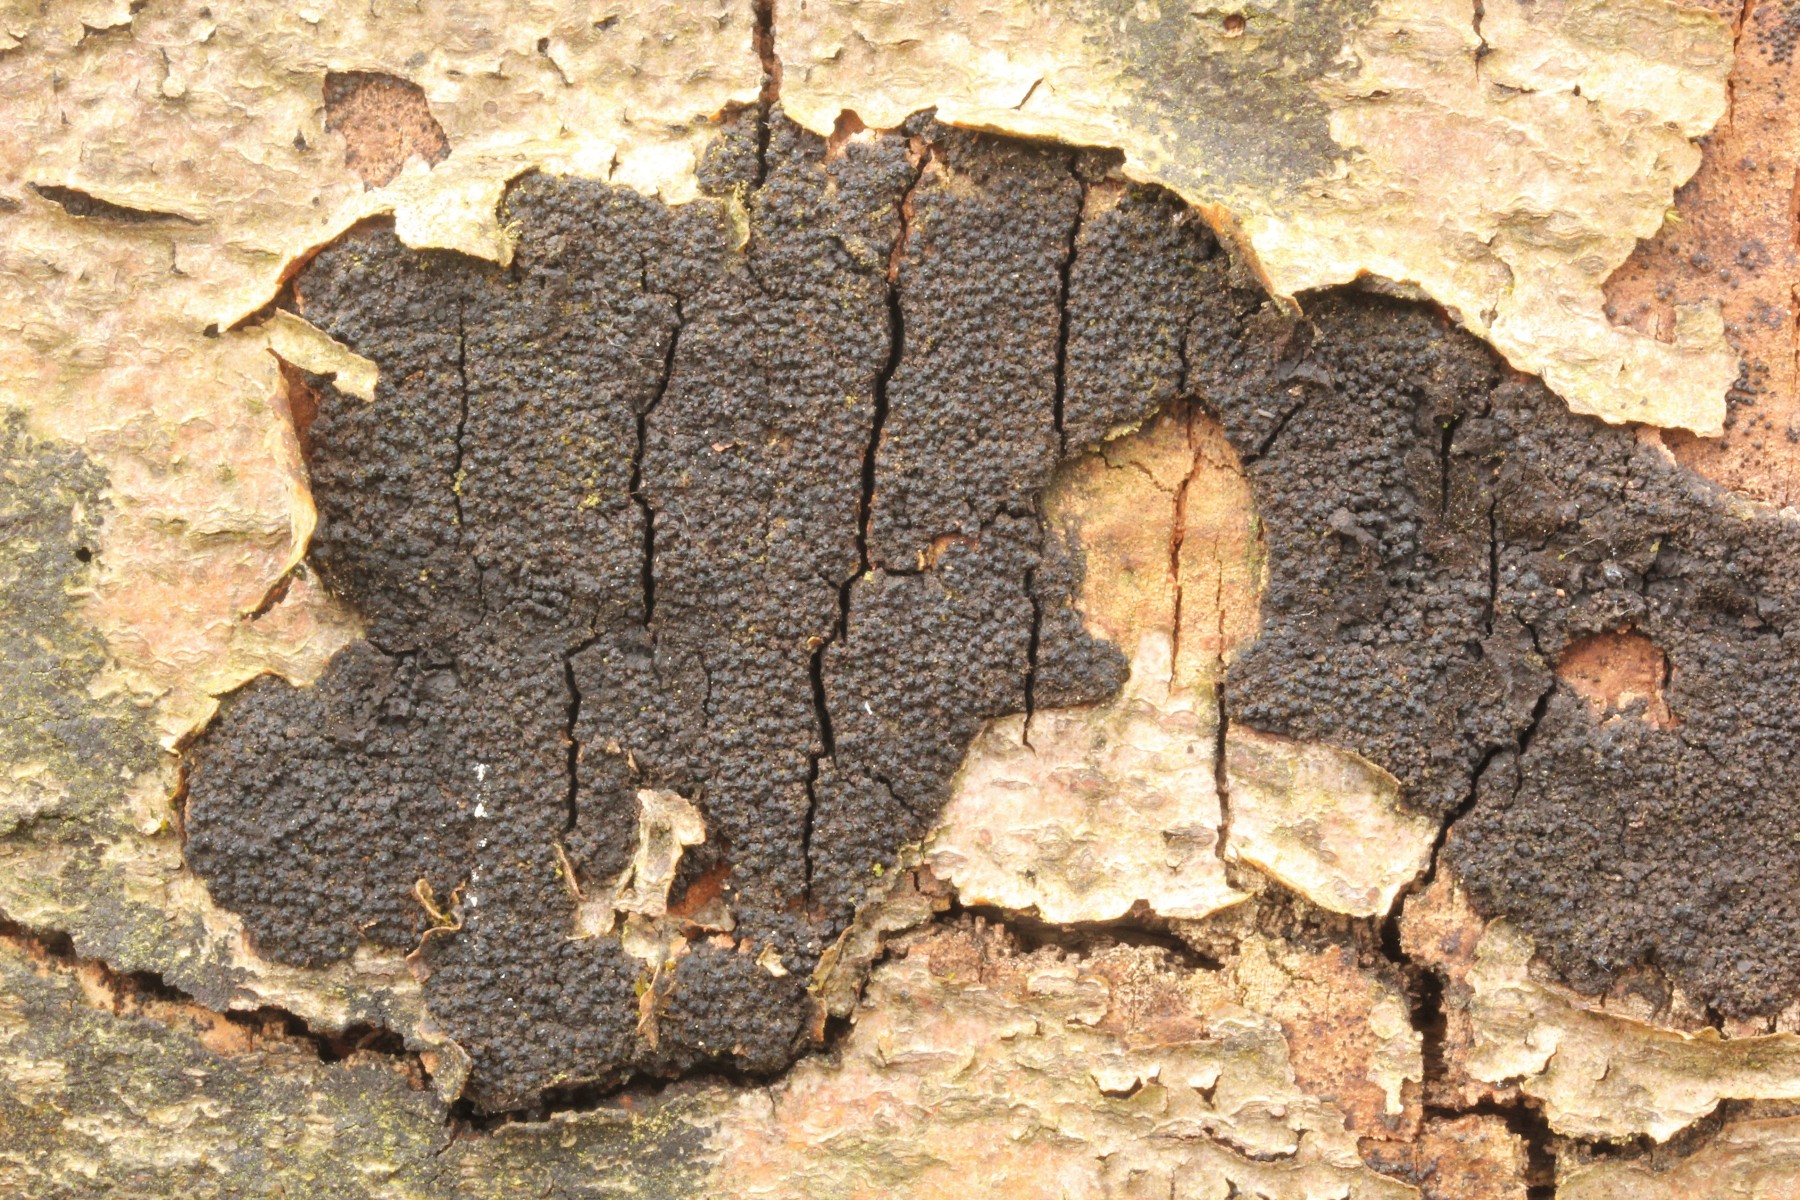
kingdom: Fungi
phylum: Ascomycota
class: Sordariomycetes
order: Xylariales
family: Diatrypaceae
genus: Eutypa
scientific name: Eutypa spinosa
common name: grov kulskorpe
